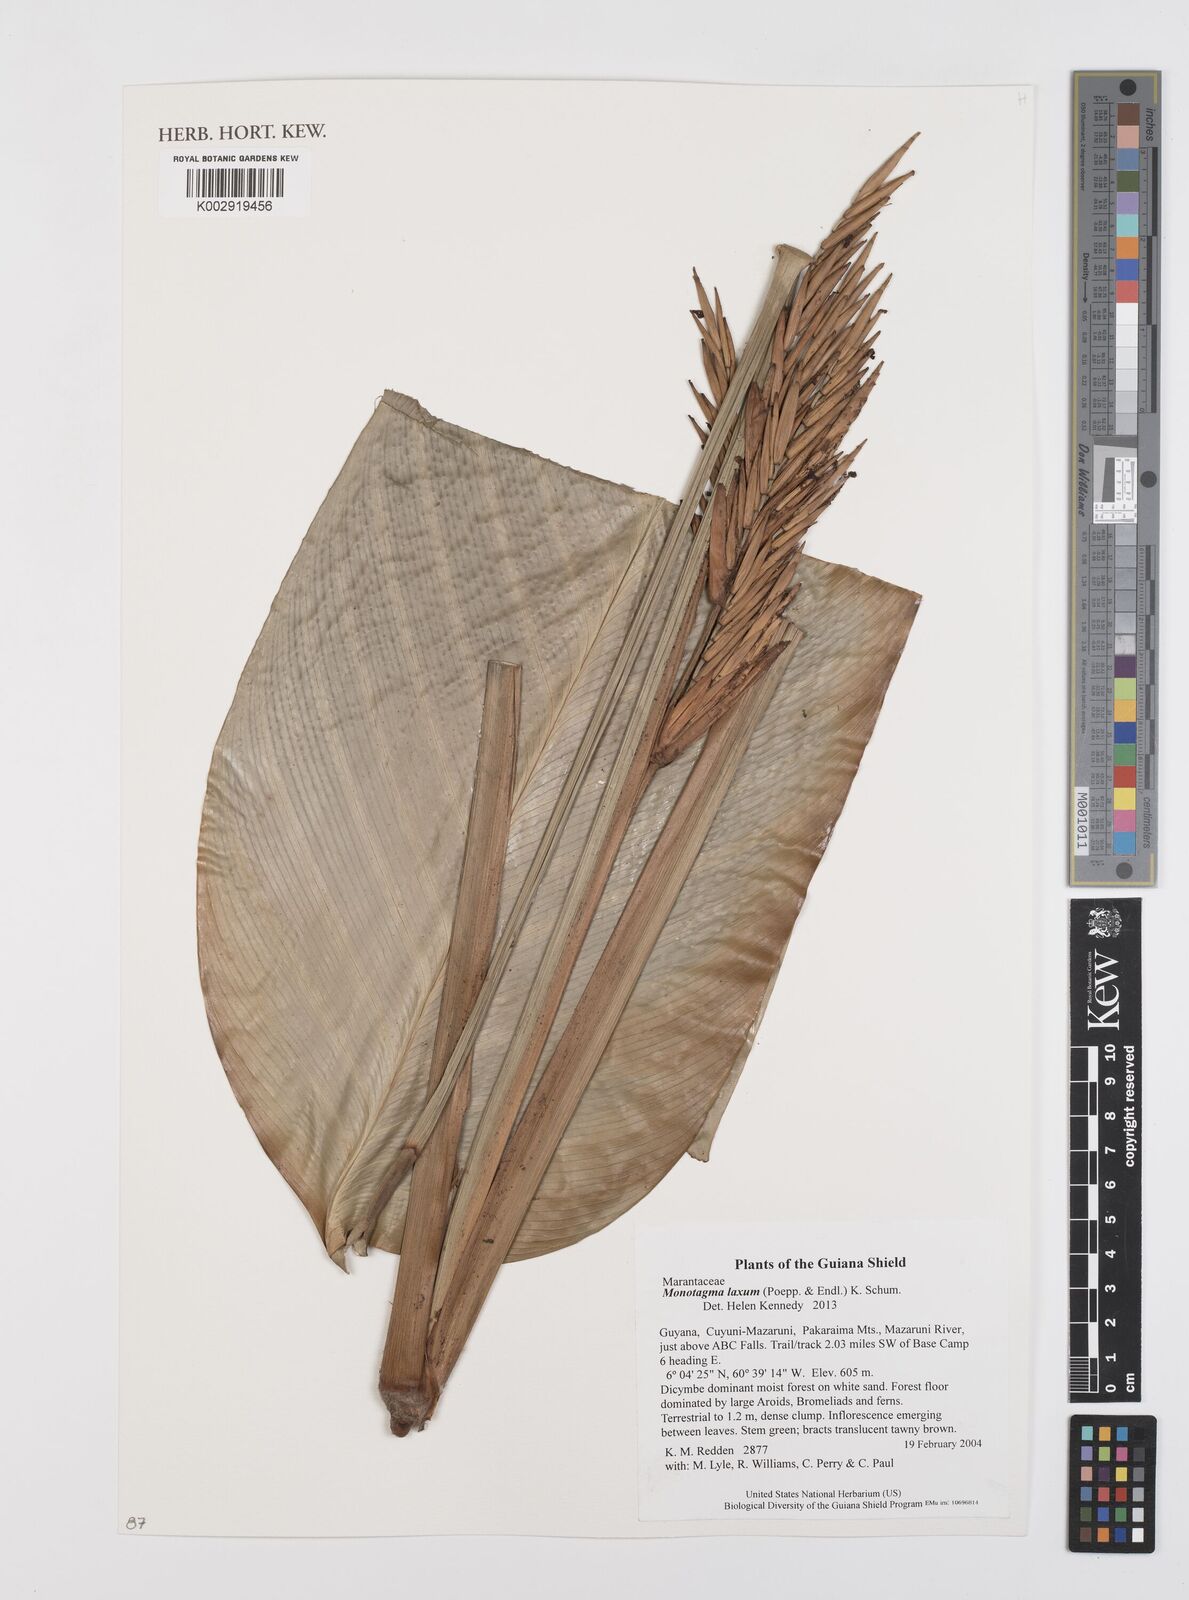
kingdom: Plantae
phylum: Tracheophyta
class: Liliopsida
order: Zingiberales
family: Marantaceae
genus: Monotagma
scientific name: Monotagma laxum
